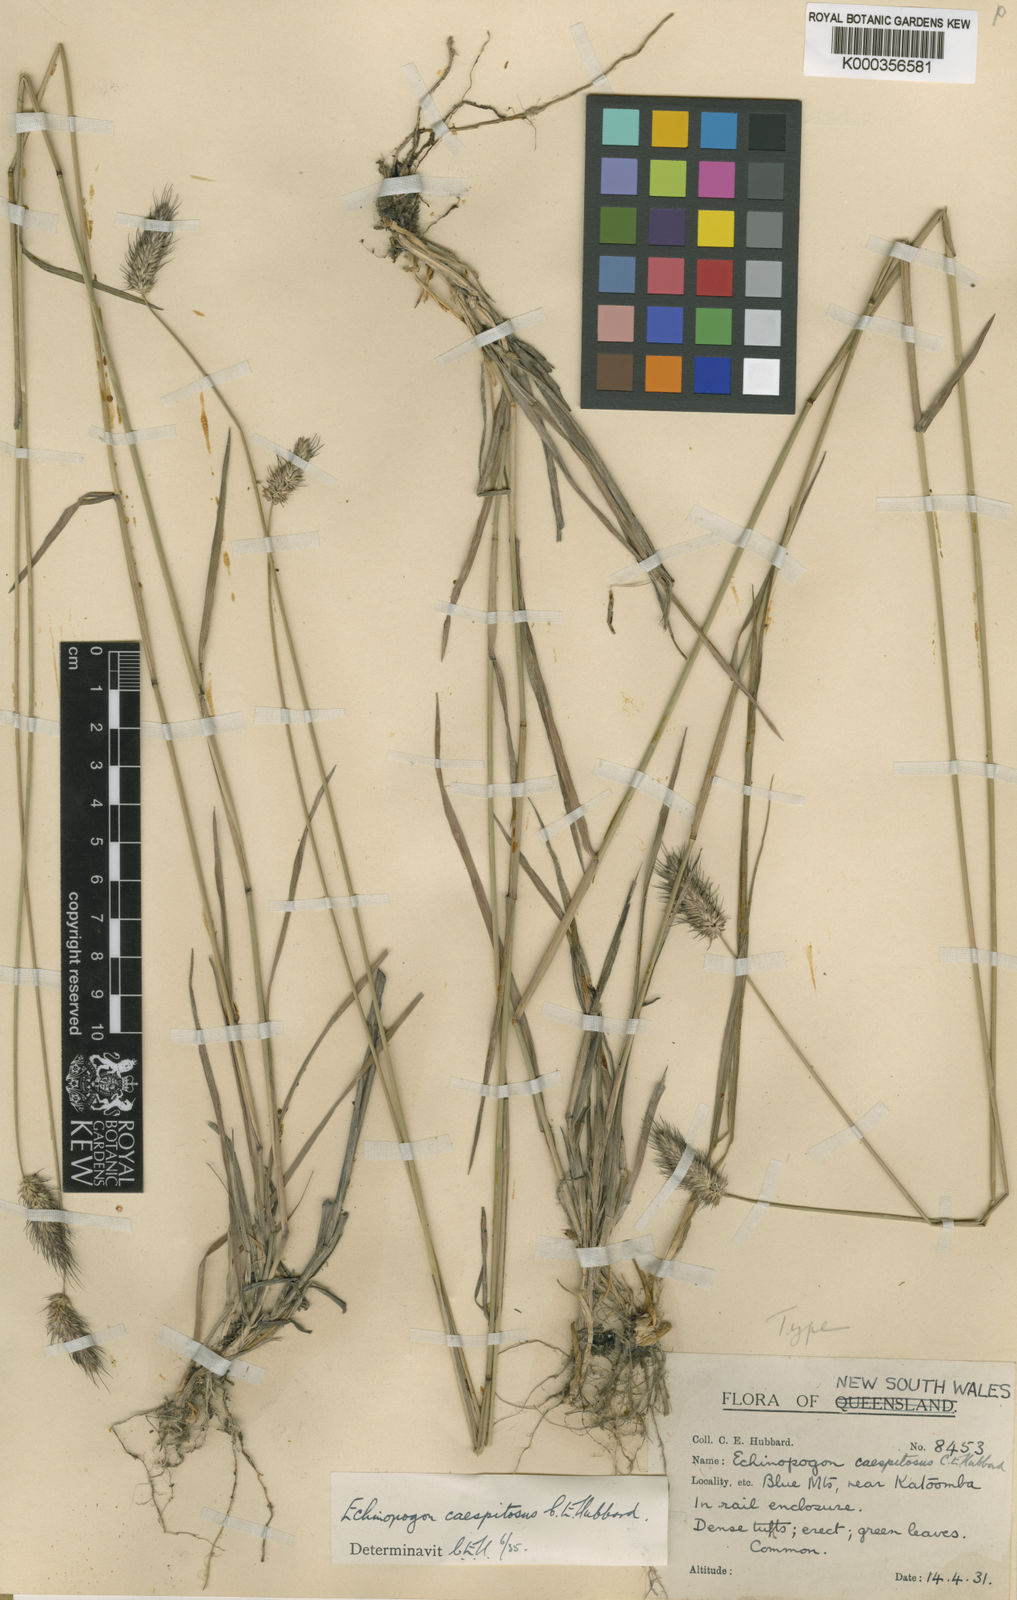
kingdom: Plantae
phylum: Tracheophyta
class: Liliopsida
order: Poales
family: Poaceae
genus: Echinopogon
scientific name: Echinopogon caespitosus
